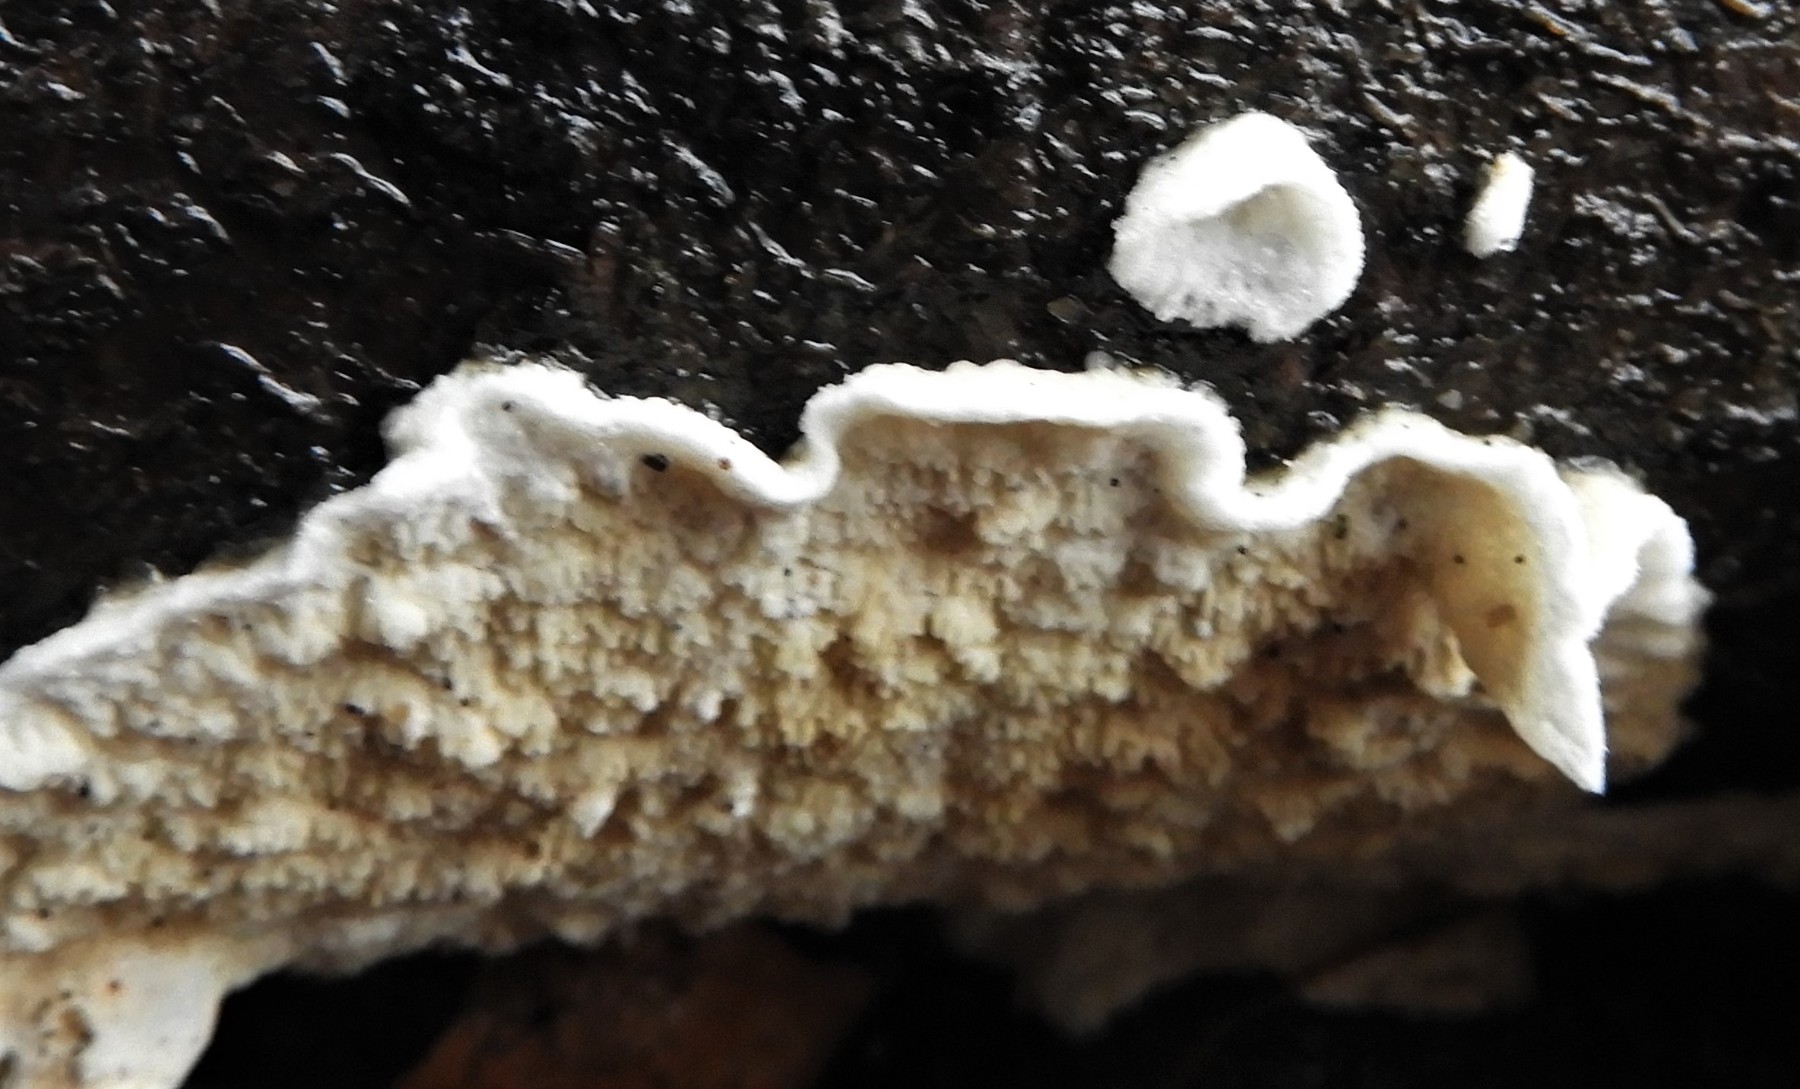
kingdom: Fungi
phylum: Basidiomycota
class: Agaricomycetes
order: Polyporales
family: Irpicaceae
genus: Byssomerulius
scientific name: Byssomerulius corium
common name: læder-åresvamp
